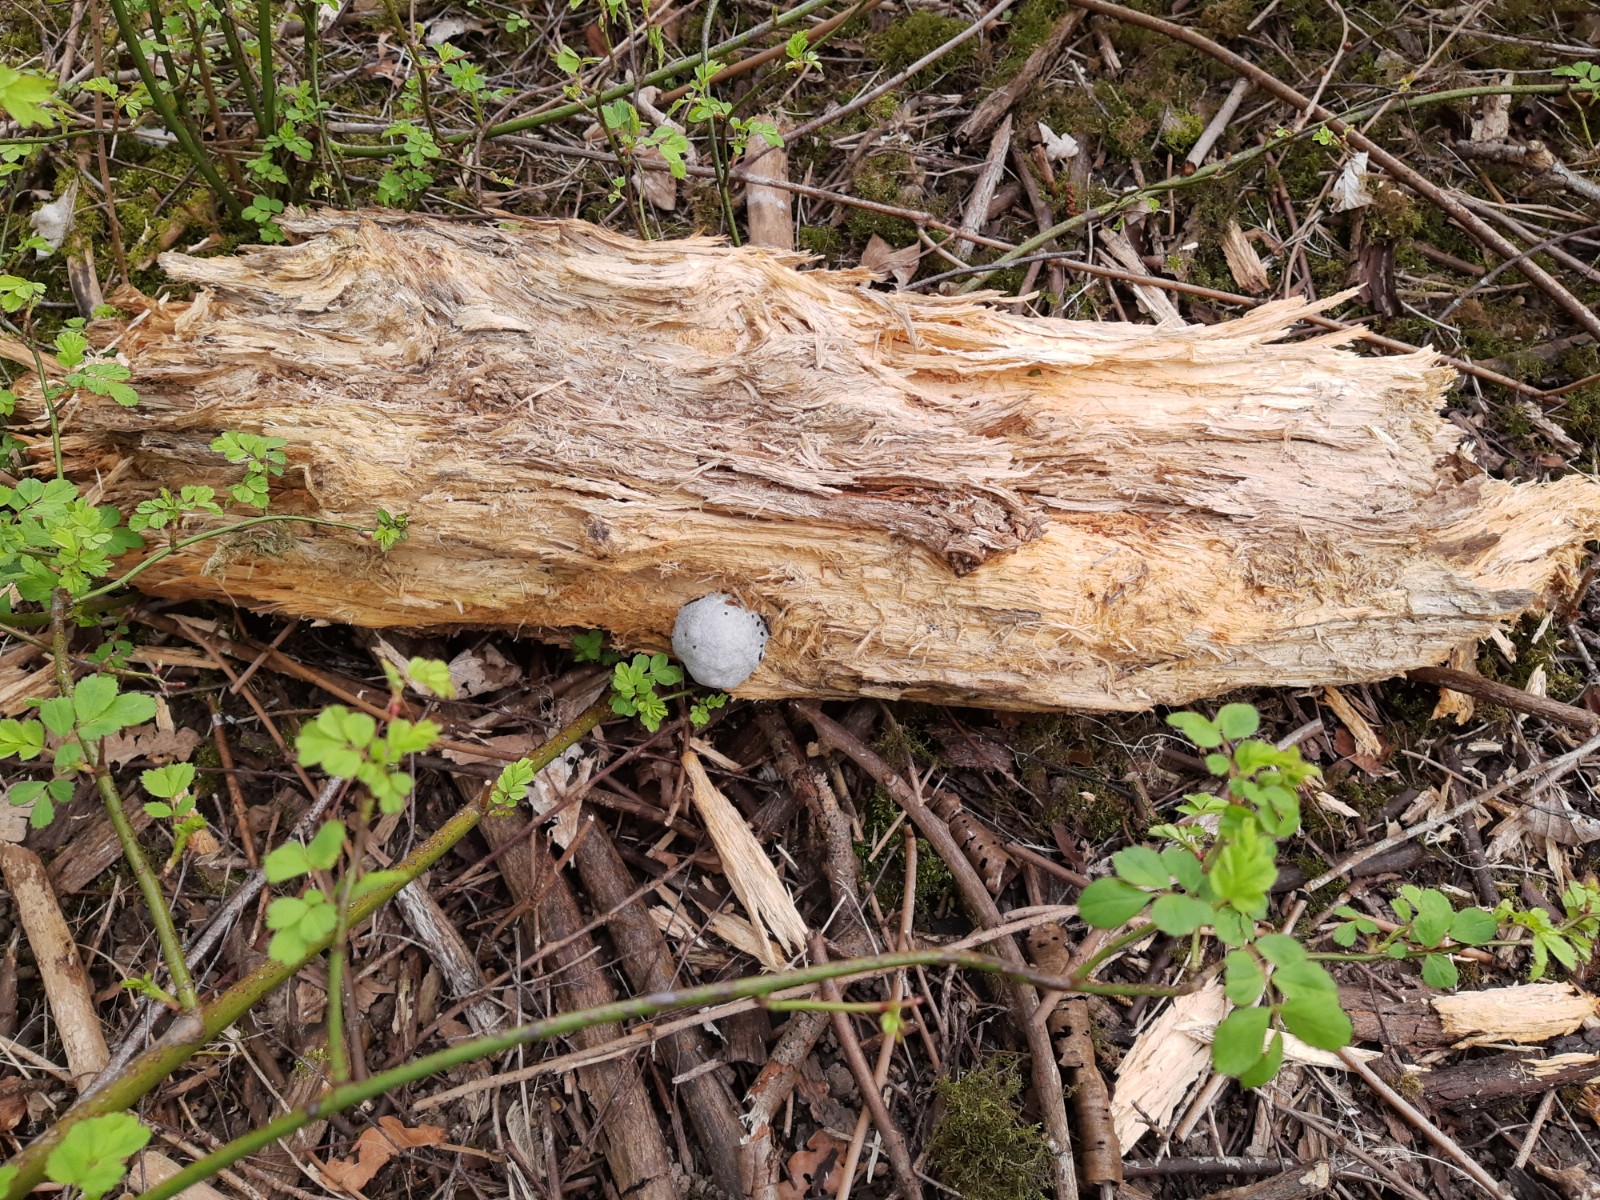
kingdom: Protozoa
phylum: Mycetozoa
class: Myxomycetes
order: Cribrariales
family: Tubiferaceae
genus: Reticularia
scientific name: Reticularia lycoperdon
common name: skinnende støvpude
